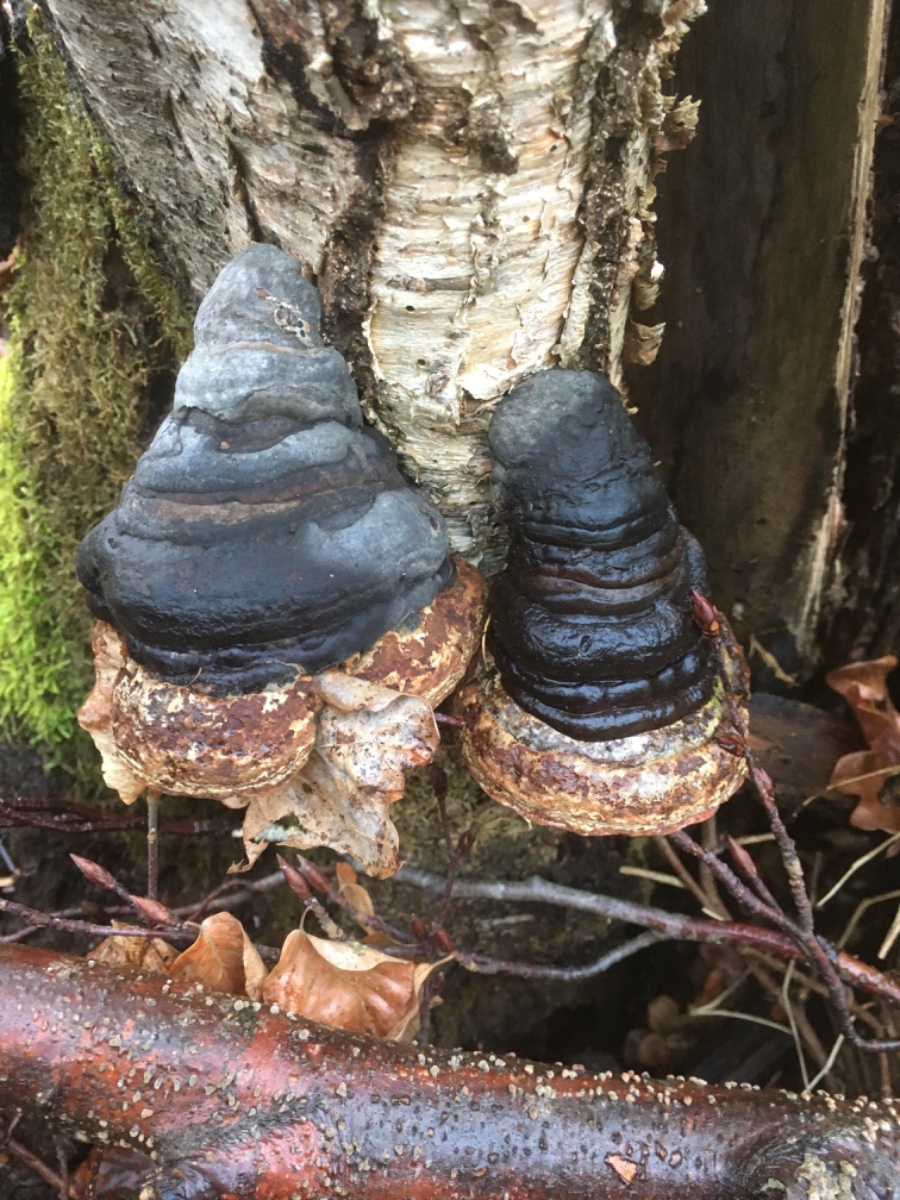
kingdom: Fungi
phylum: Basidiomycota
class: Agaricomycetes
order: Polyporales
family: Polyporaceae
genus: Fomes
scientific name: Fomes fomentarius
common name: tøndersvamp
